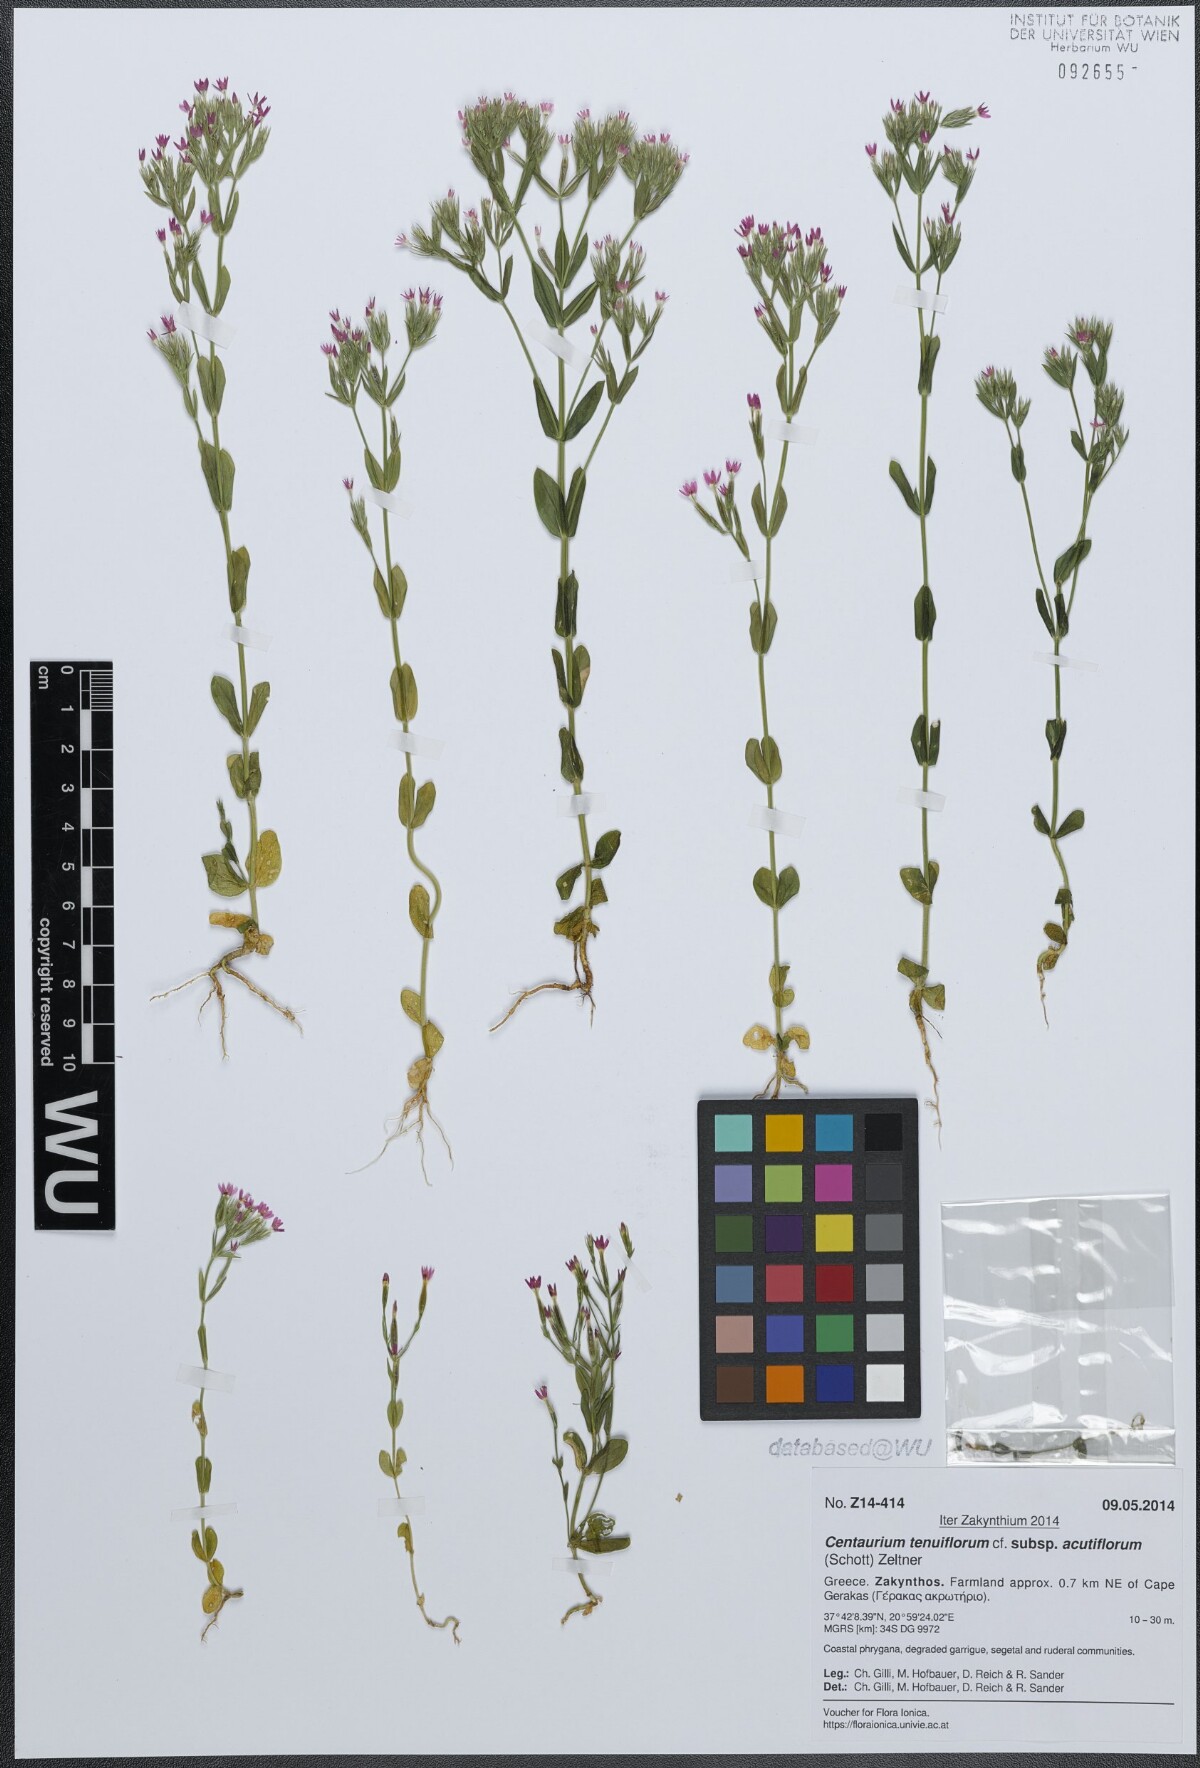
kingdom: Plantae
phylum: Tracheophyta
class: Magnoliopsida
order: Gentianales
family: Gentianaceae
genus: Centaurium
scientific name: Centaurium tenuiflorum
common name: Slender centaury
